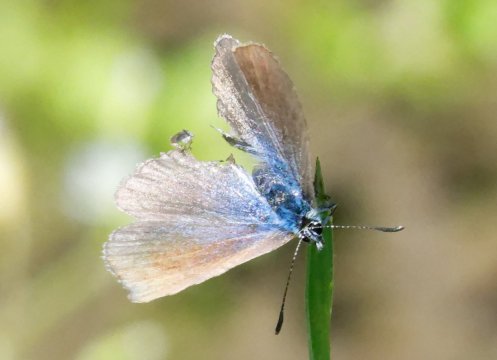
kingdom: Animalia
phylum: Arthropoda
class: Insecta
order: Lepidoptera
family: Lycaenidae
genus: Glaucopsyche
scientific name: Glaucopsyche lygdamus
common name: Silvery Blue
